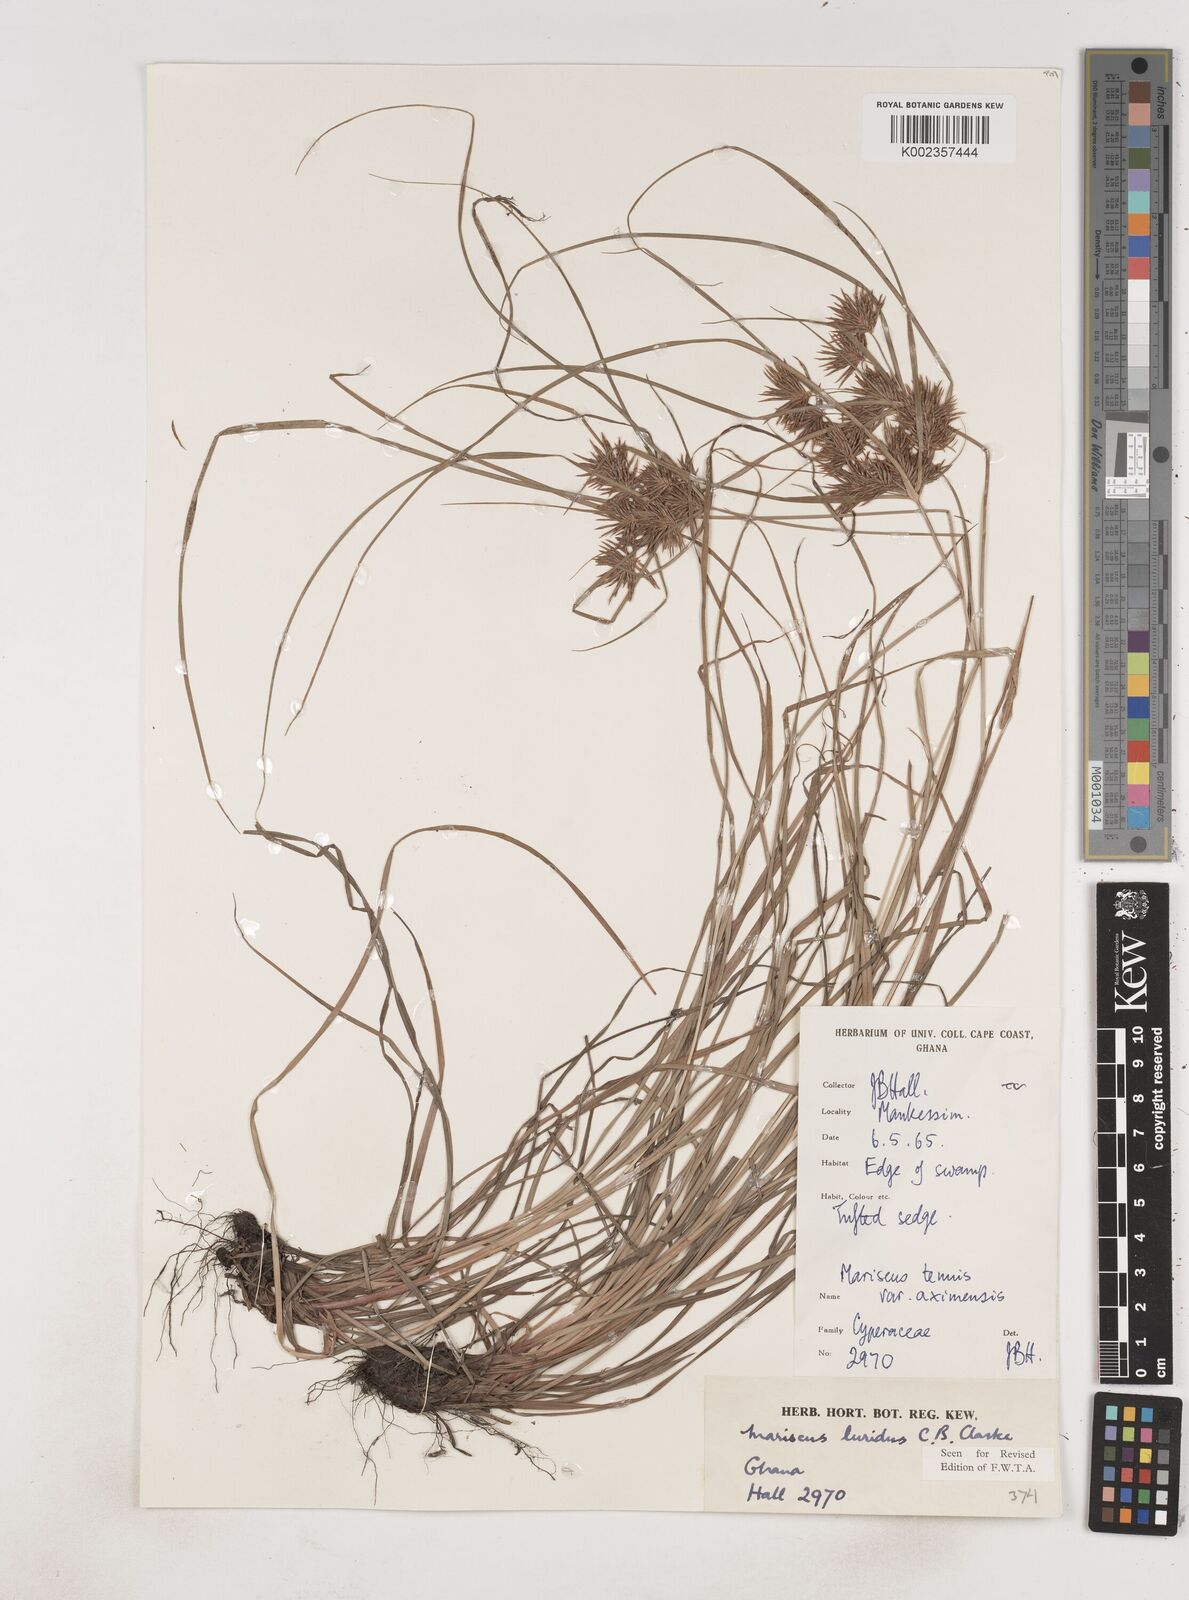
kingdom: Plantae
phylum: Tracheophyta
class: Liliopsida
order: Poales
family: Cyperaceae
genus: Cyperus
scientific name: Cyperus tenuis
